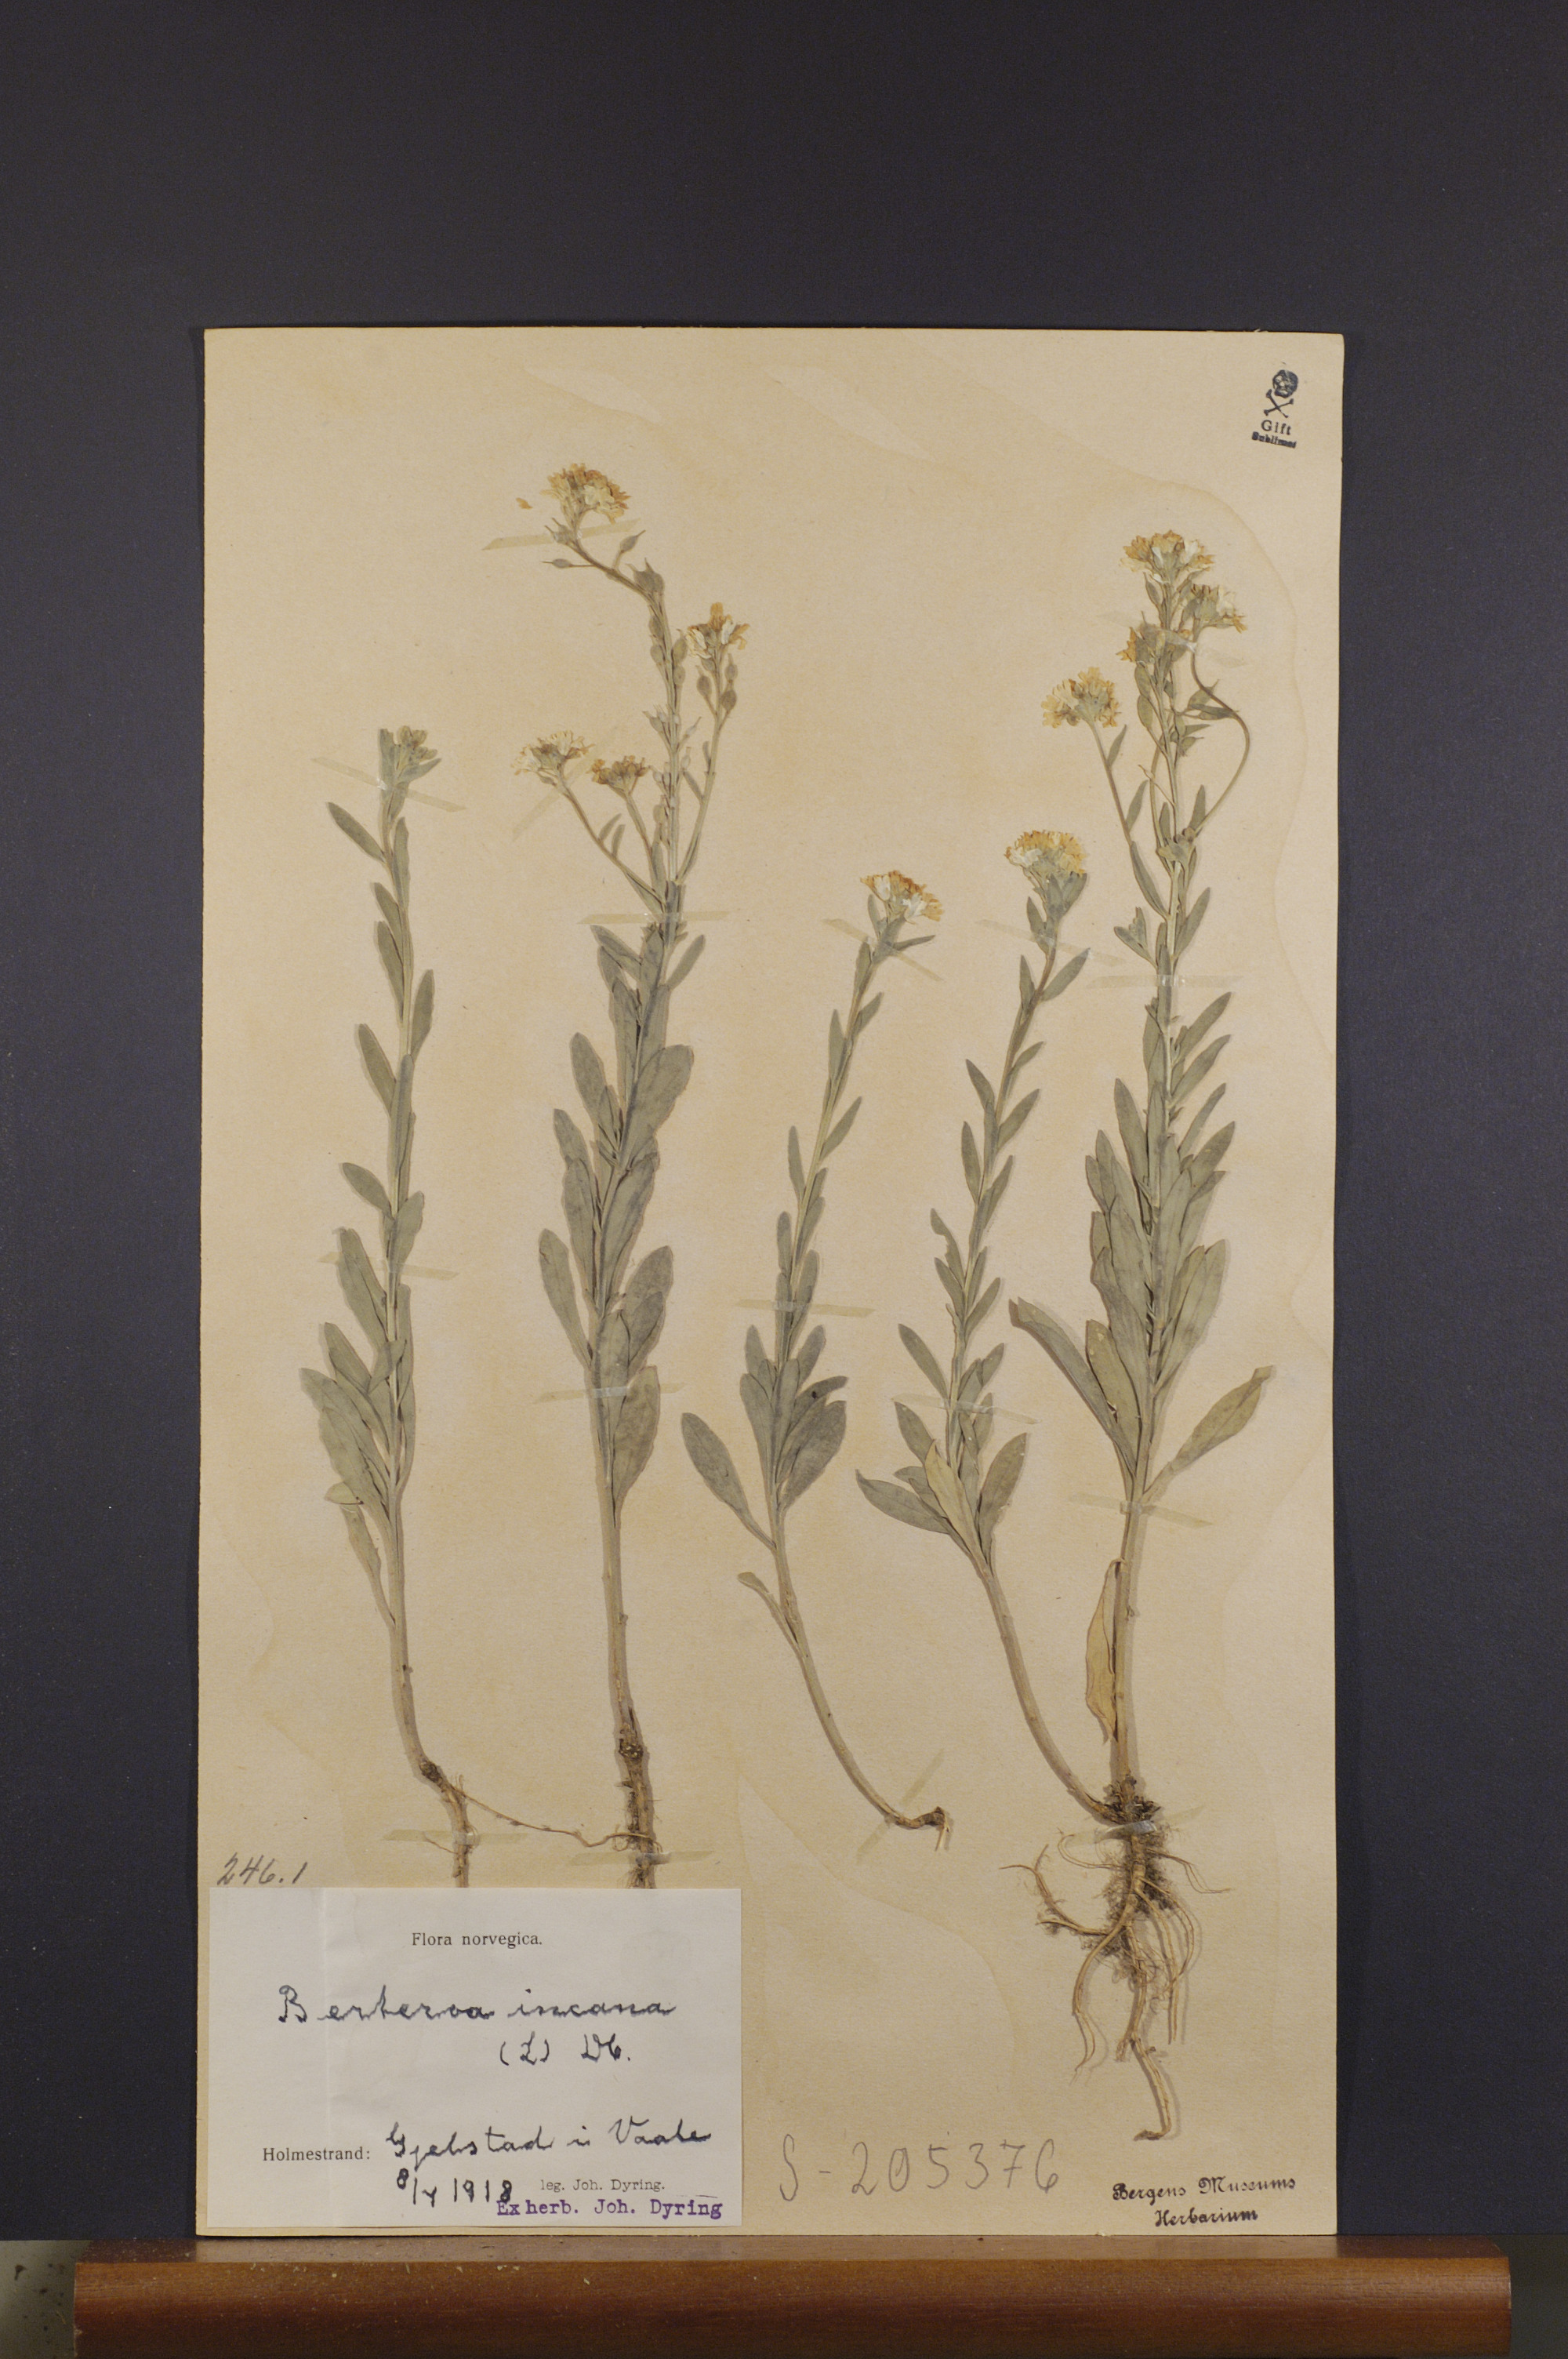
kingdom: Plantae
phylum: Tracheophyta
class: Magnoliopsida
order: Brassicales
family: Brassicaceae
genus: Berteroa
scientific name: Berteroa incana
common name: Hoary alison
